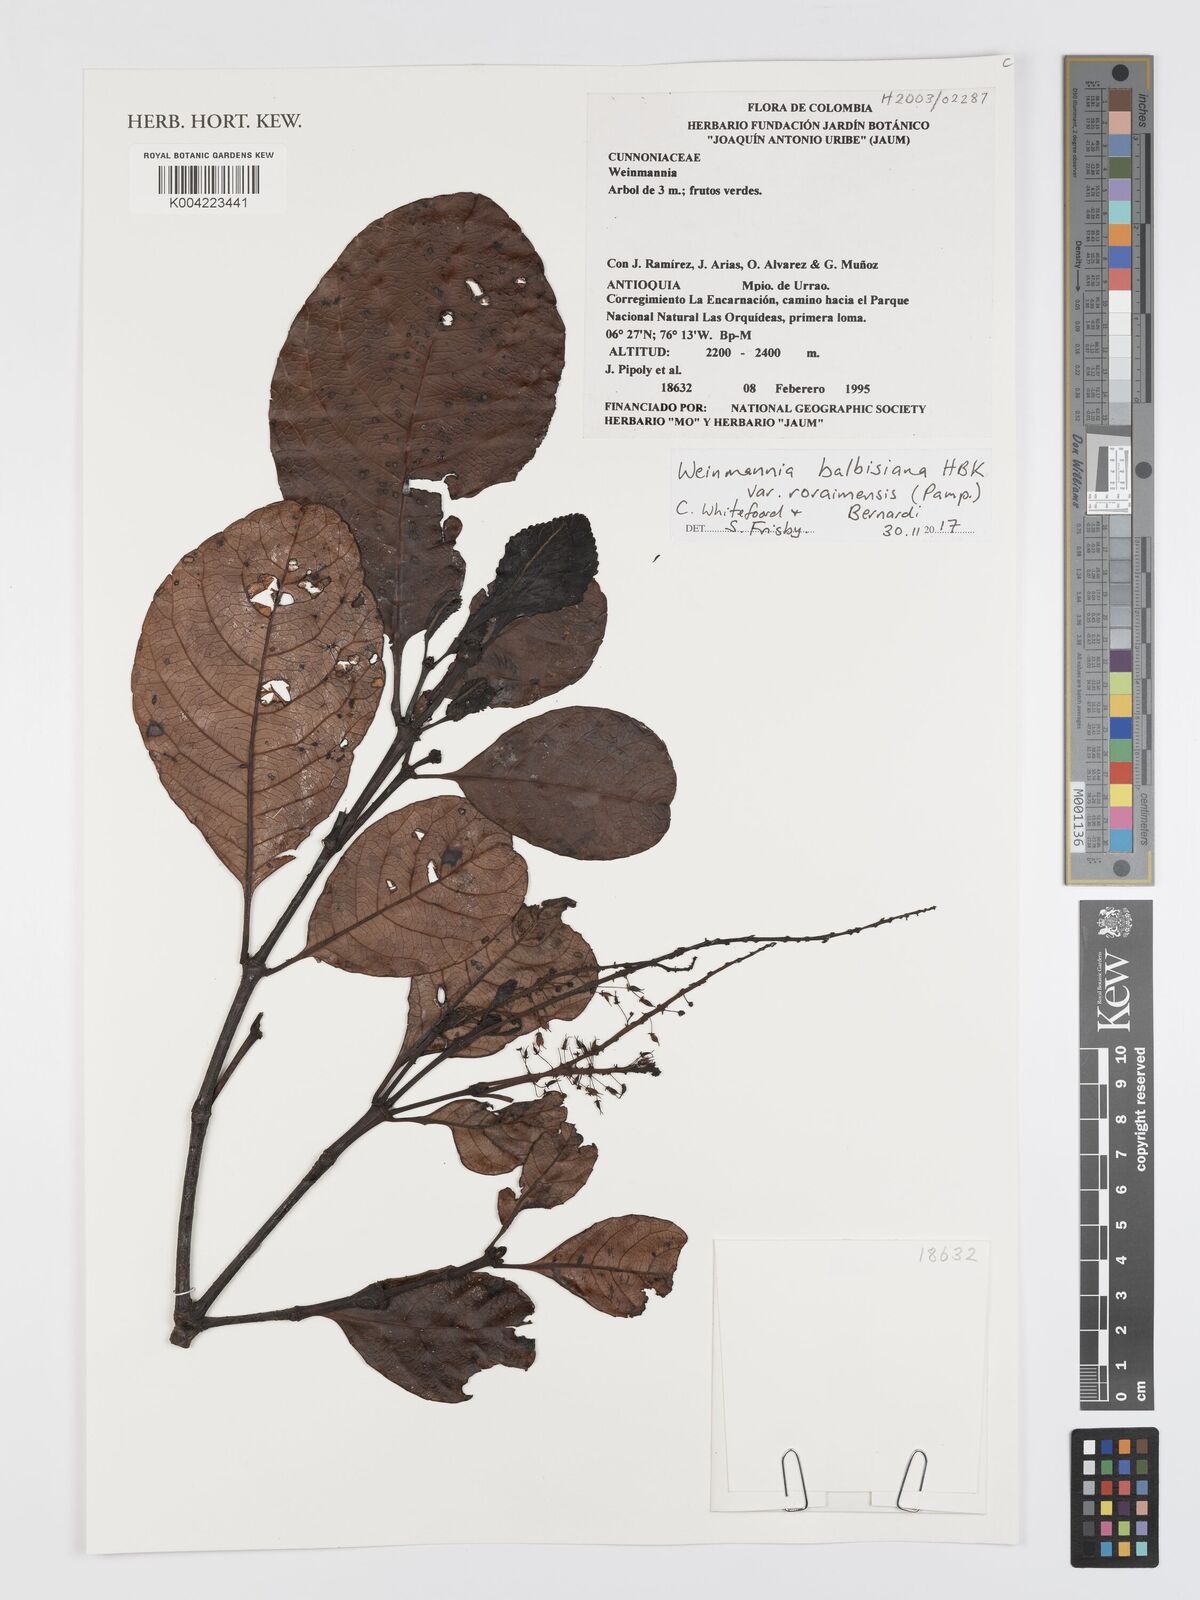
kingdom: Plantae
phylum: Tracheophyta
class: Magnoliopsida
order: Oxalidales
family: Cunoniaceae
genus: Weinmannia
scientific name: Weinmannia elliptica
